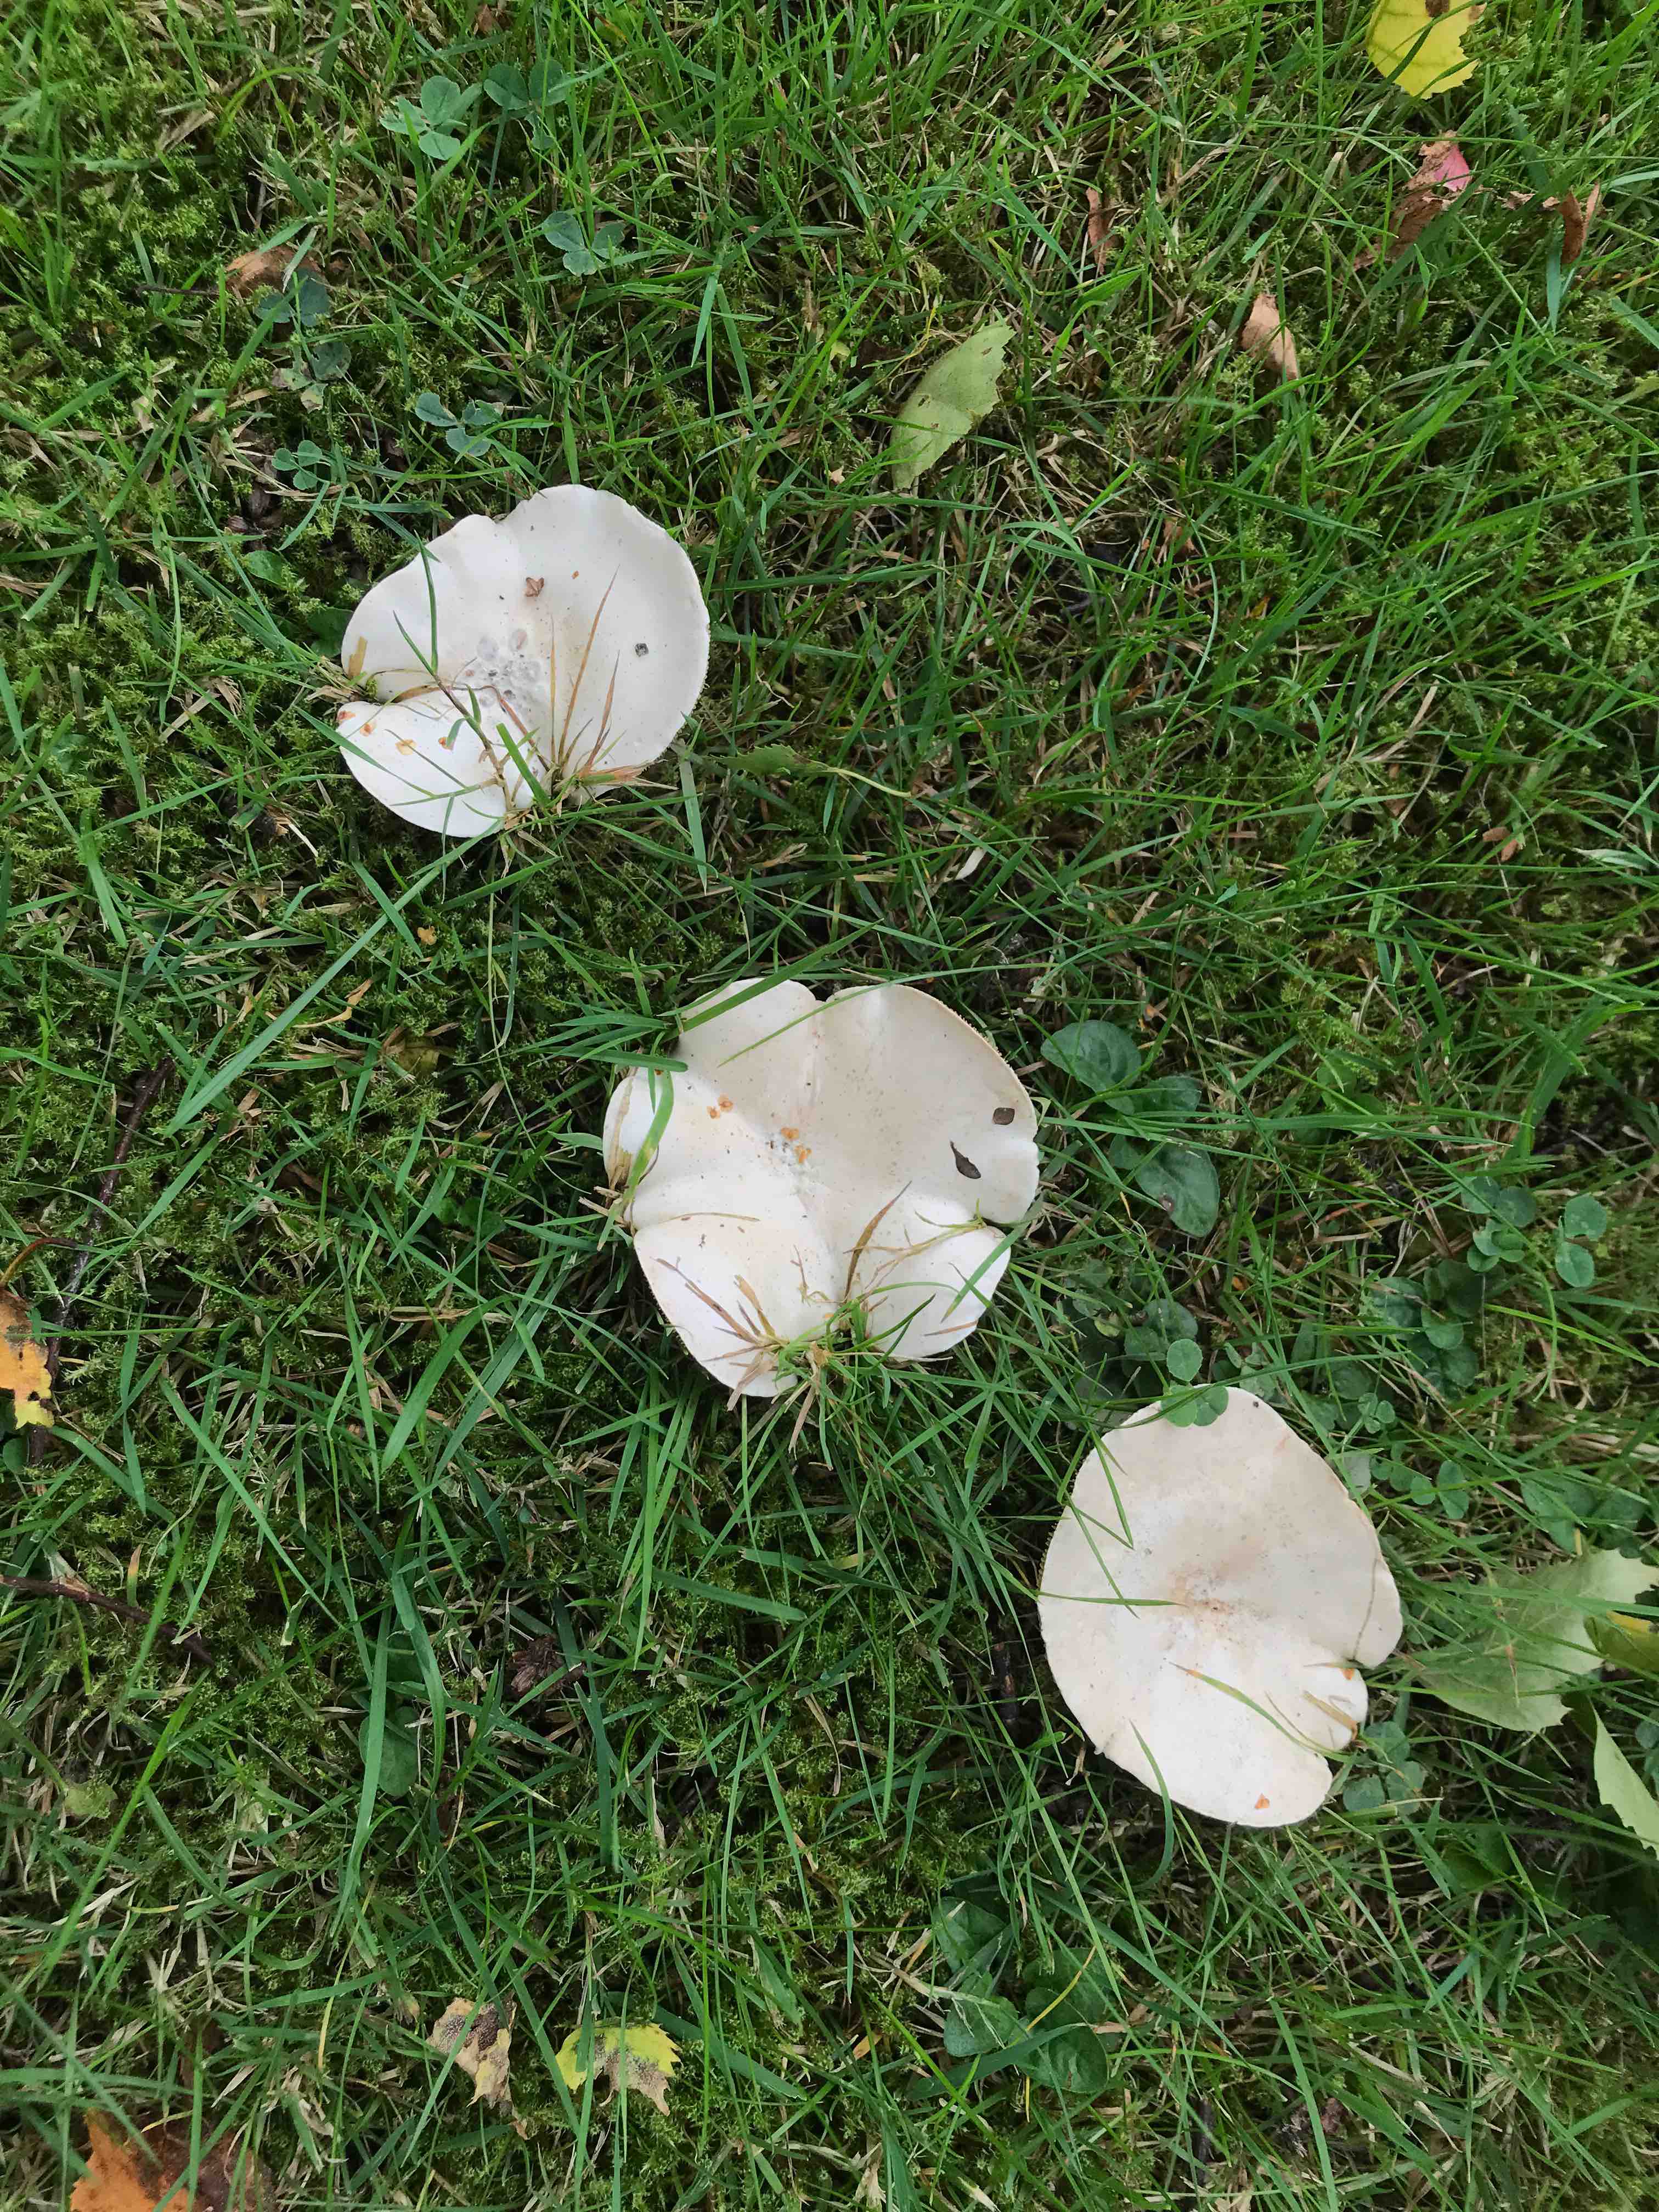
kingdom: Fungi
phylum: Basidiomycota
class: Agaricomycetes
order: Agaricales
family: Tricholomataceae
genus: Aspropaxillus
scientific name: Aspropaxillus giganteus
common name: kæmpe-tragtridderhat
